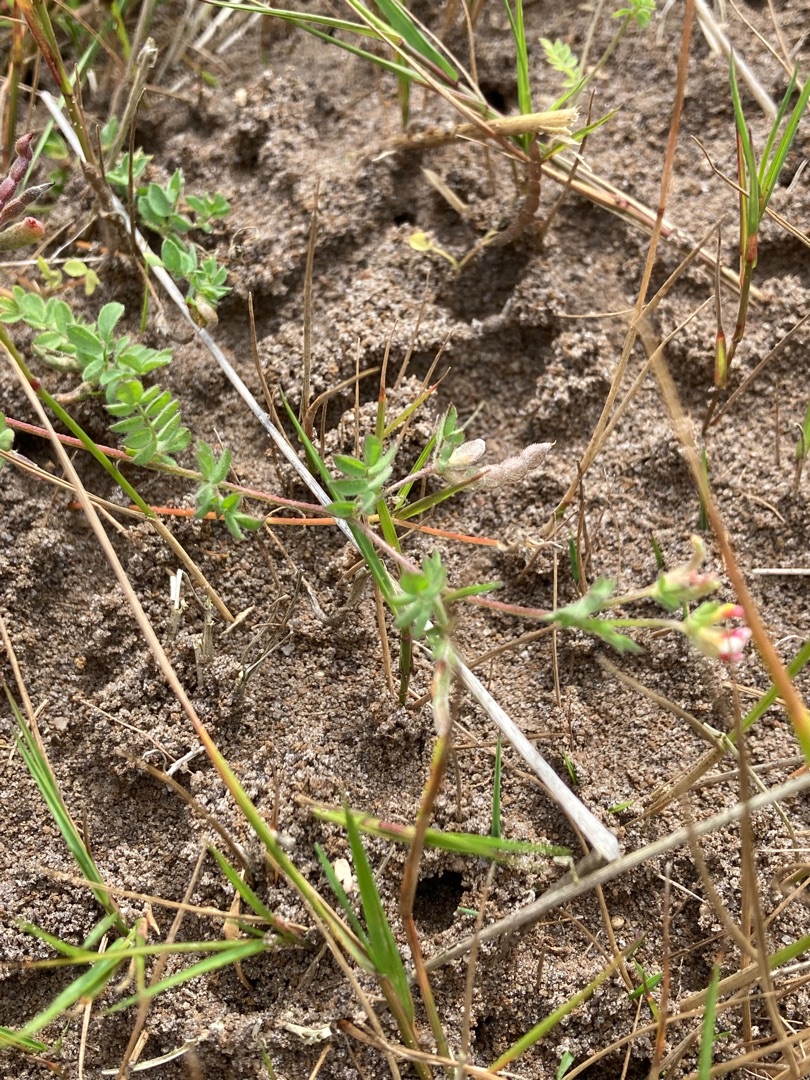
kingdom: Plantae
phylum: Tracheophyta
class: Magnoliopsida
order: Fabales
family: Fabaceae
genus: Ornithopus
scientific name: Ornithopus perpusillus
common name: Liden fugleklo
